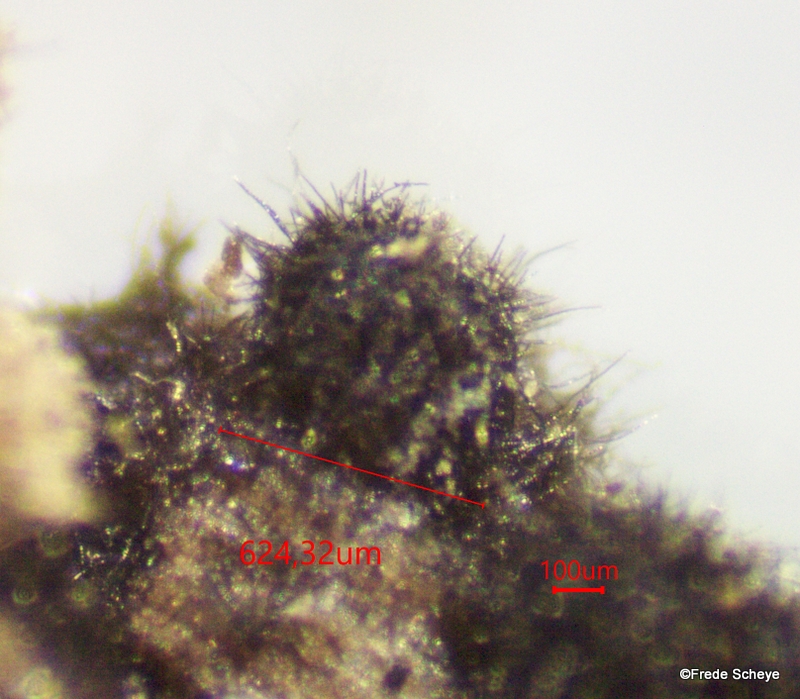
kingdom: Fungi
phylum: Ascomycota
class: Sordariomycetes
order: Sordariales
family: Lasiosphaeridaceae
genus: Lasiosphaeris
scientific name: Lasiosphaeris hirsuta
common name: sorthåret kernesvamp
